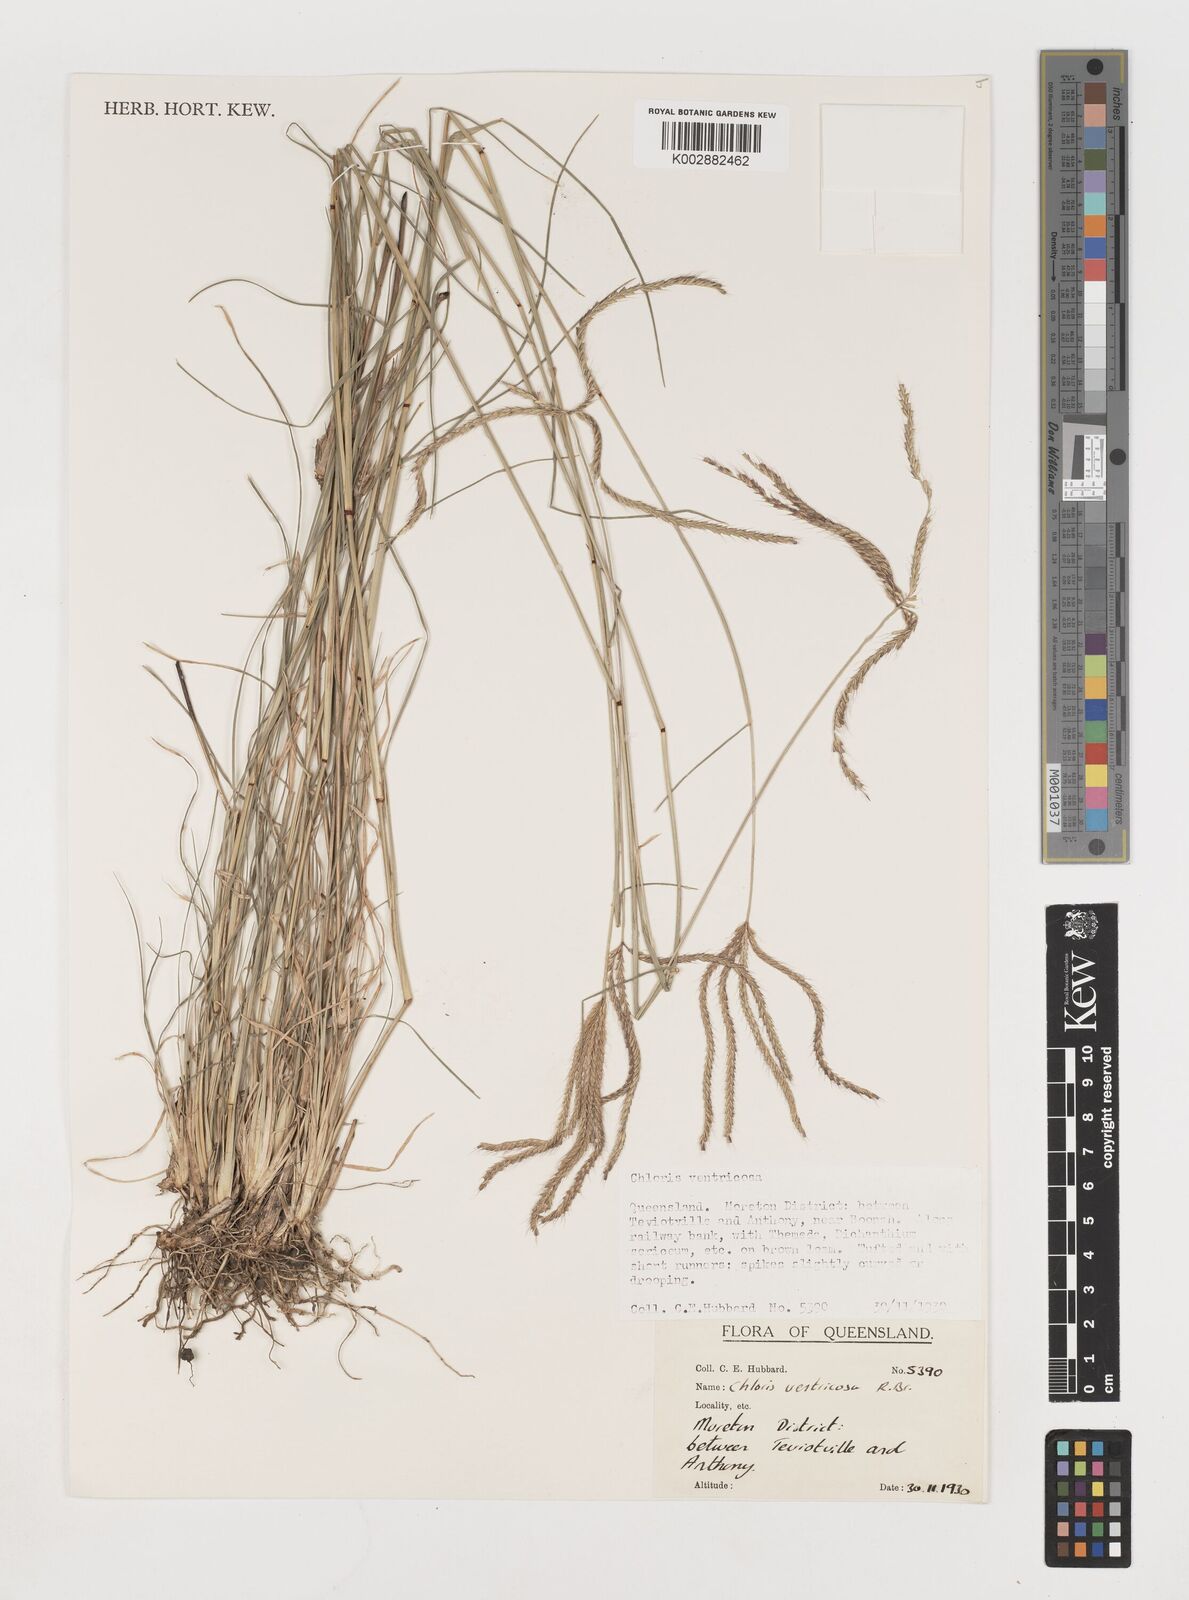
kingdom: Plantae
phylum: Tracheophyta
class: Liliopsida
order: Poales
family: Poaceae
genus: Chloris
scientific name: Chloris ventricosa
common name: Australian windmill grass
